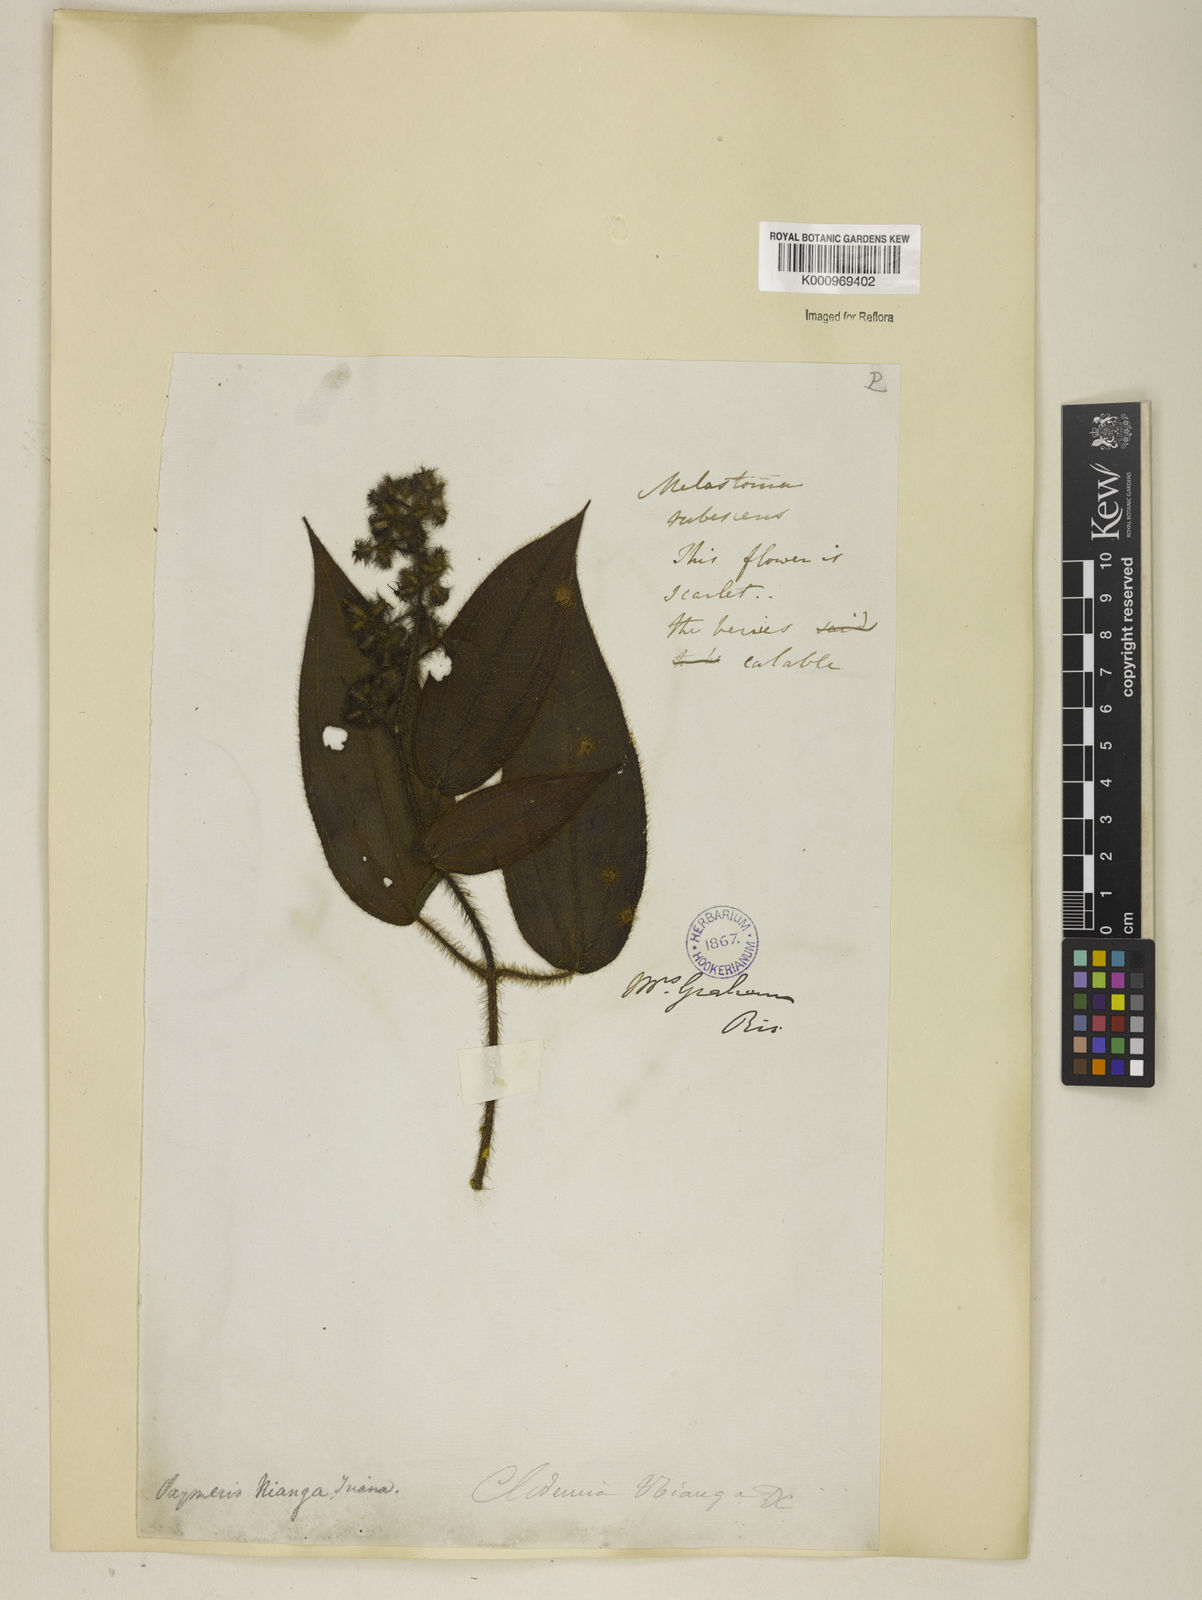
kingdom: Plantae
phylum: Tracheophyta
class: Magnoliopsida
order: Myrtales
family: Melastomataceae
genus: Miconia
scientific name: Miconia nianga
